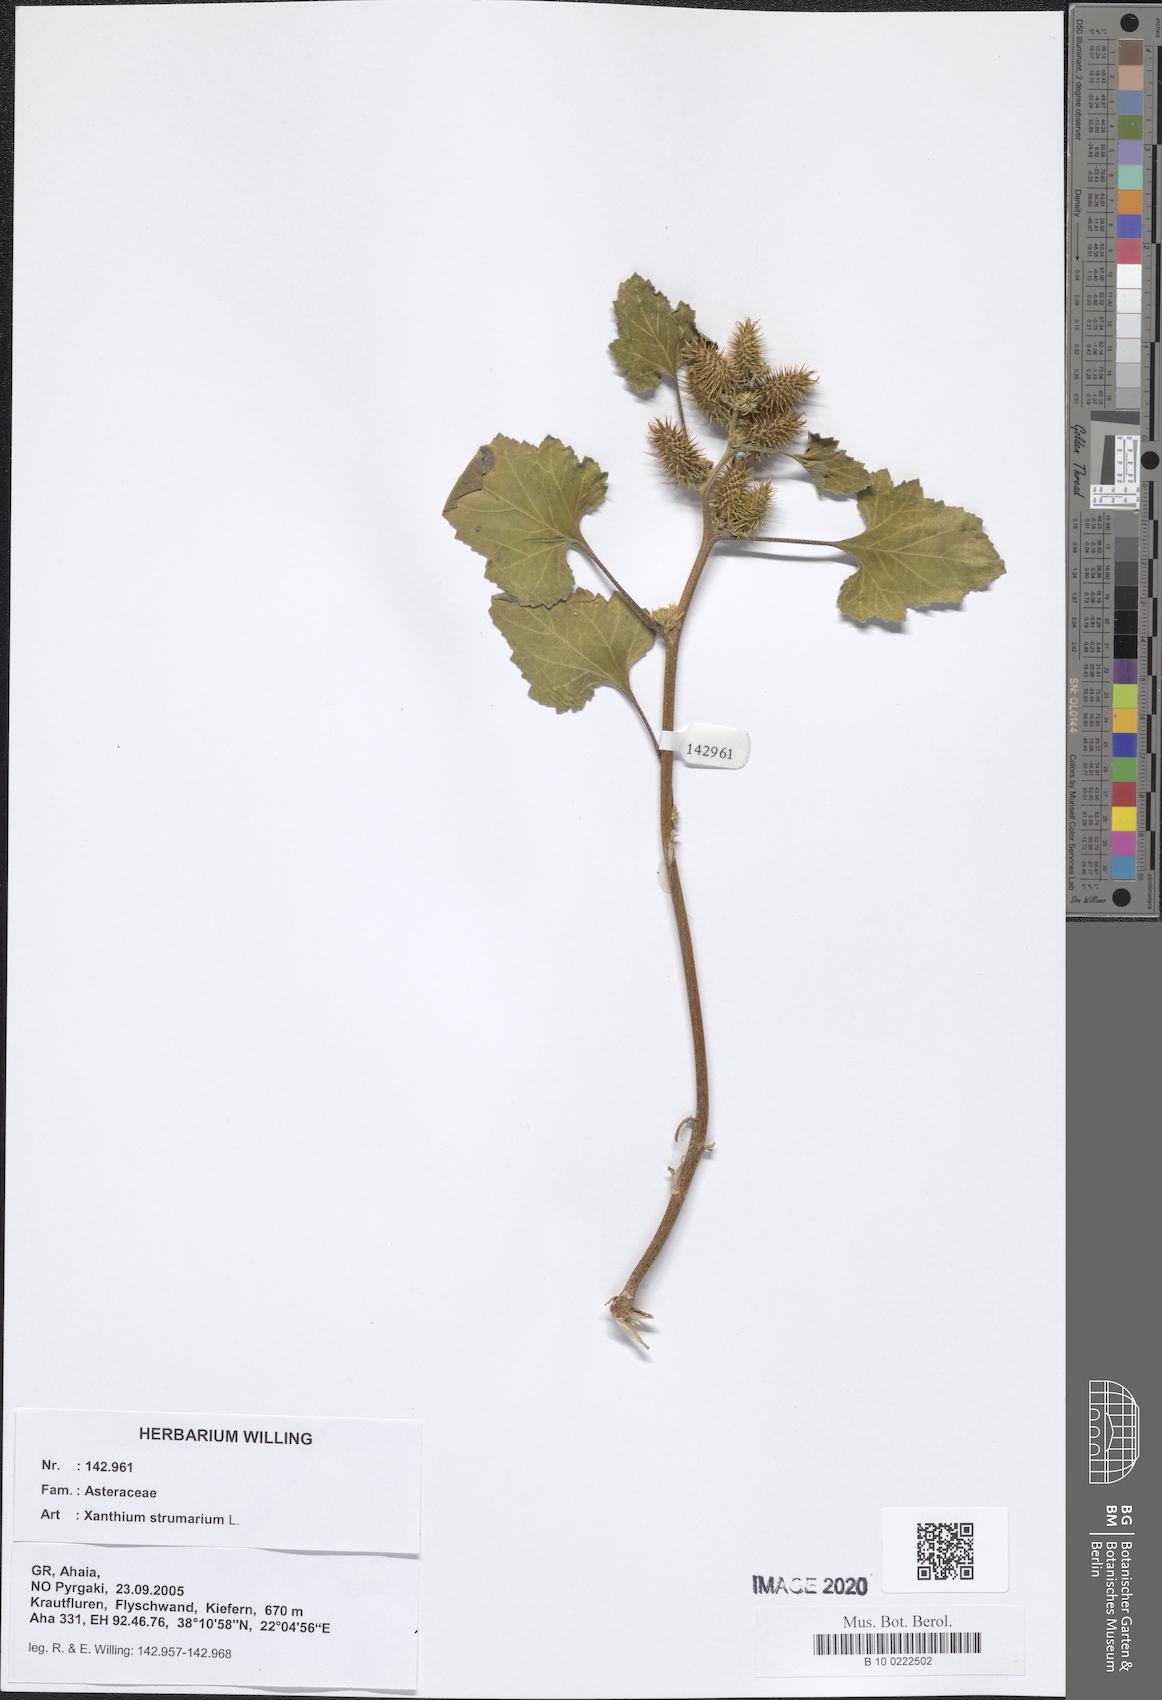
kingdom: Plantae
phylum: Tracheophyta
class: Magnoliopsida
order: Asterales
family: Asteraceae
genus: Xanthium
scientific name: Xanthium strumarium
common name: Rough cocklebur
